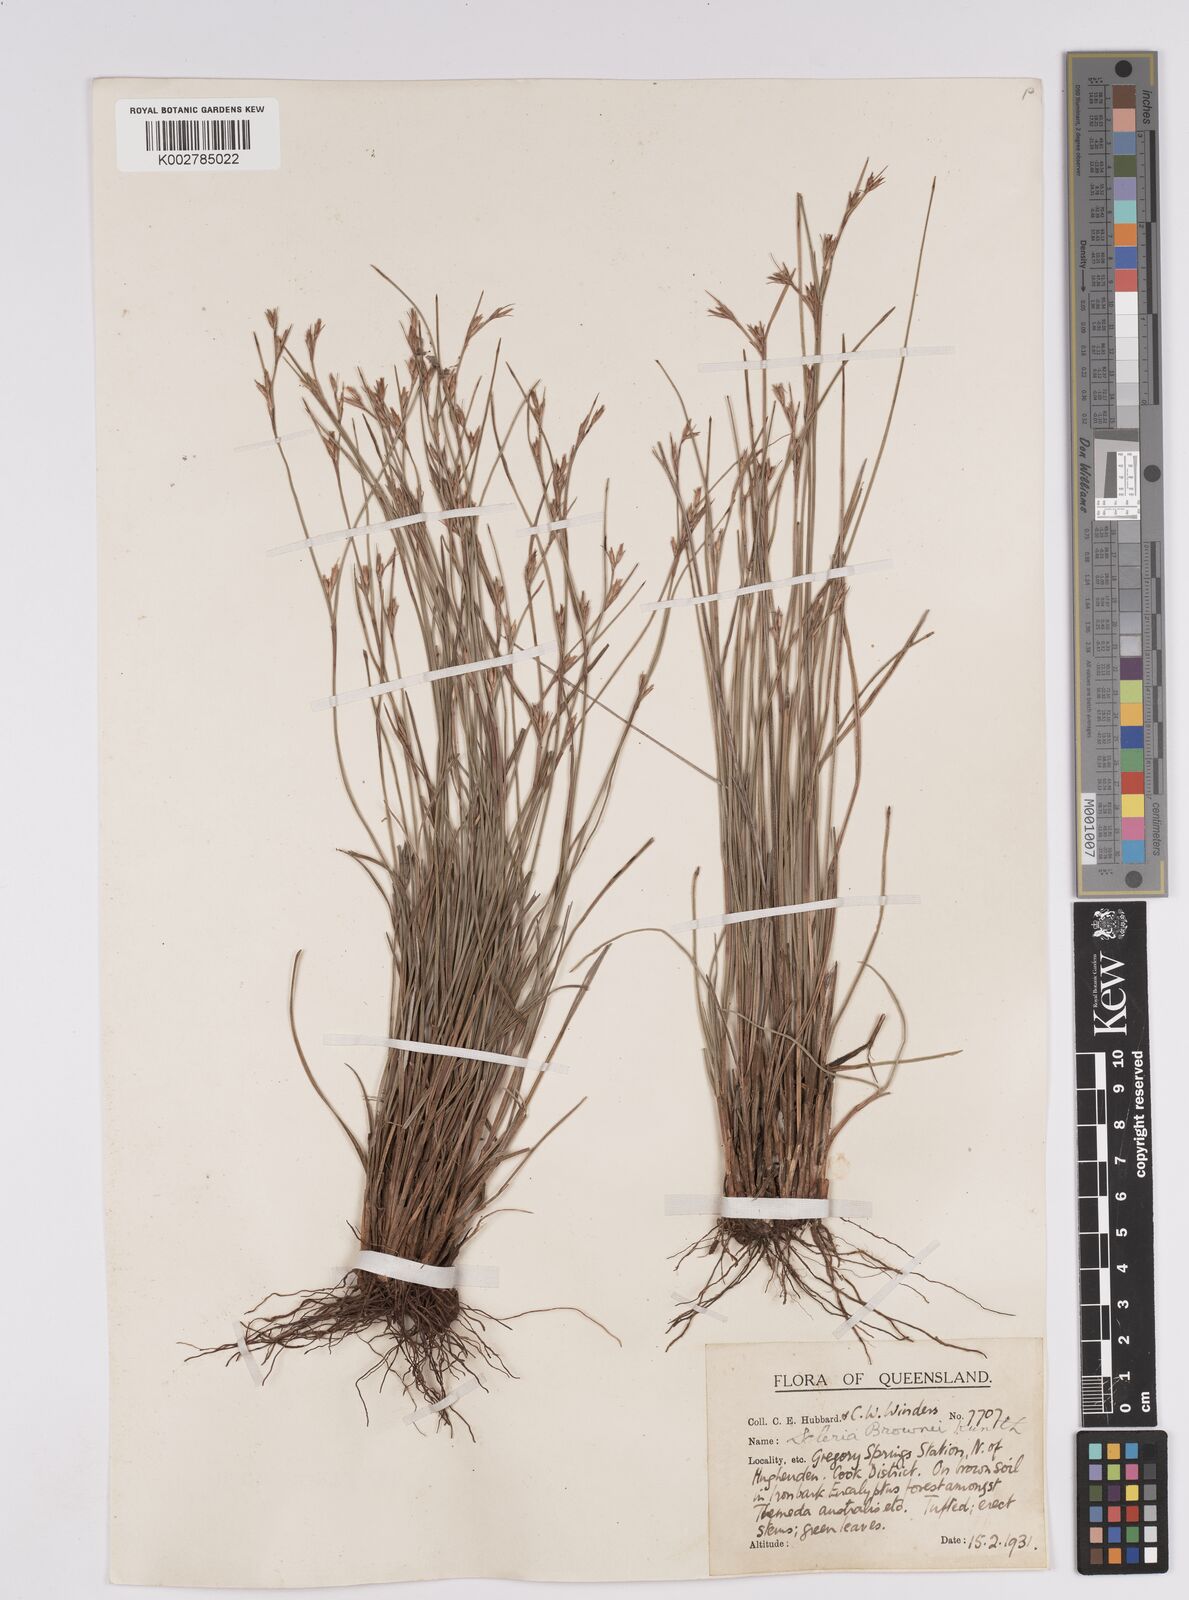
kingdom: Plantae
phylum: Tracheophyta
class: Liliopsida
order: Poales
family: Cyperaceae
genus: Scleria
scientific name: Scleria brownii
